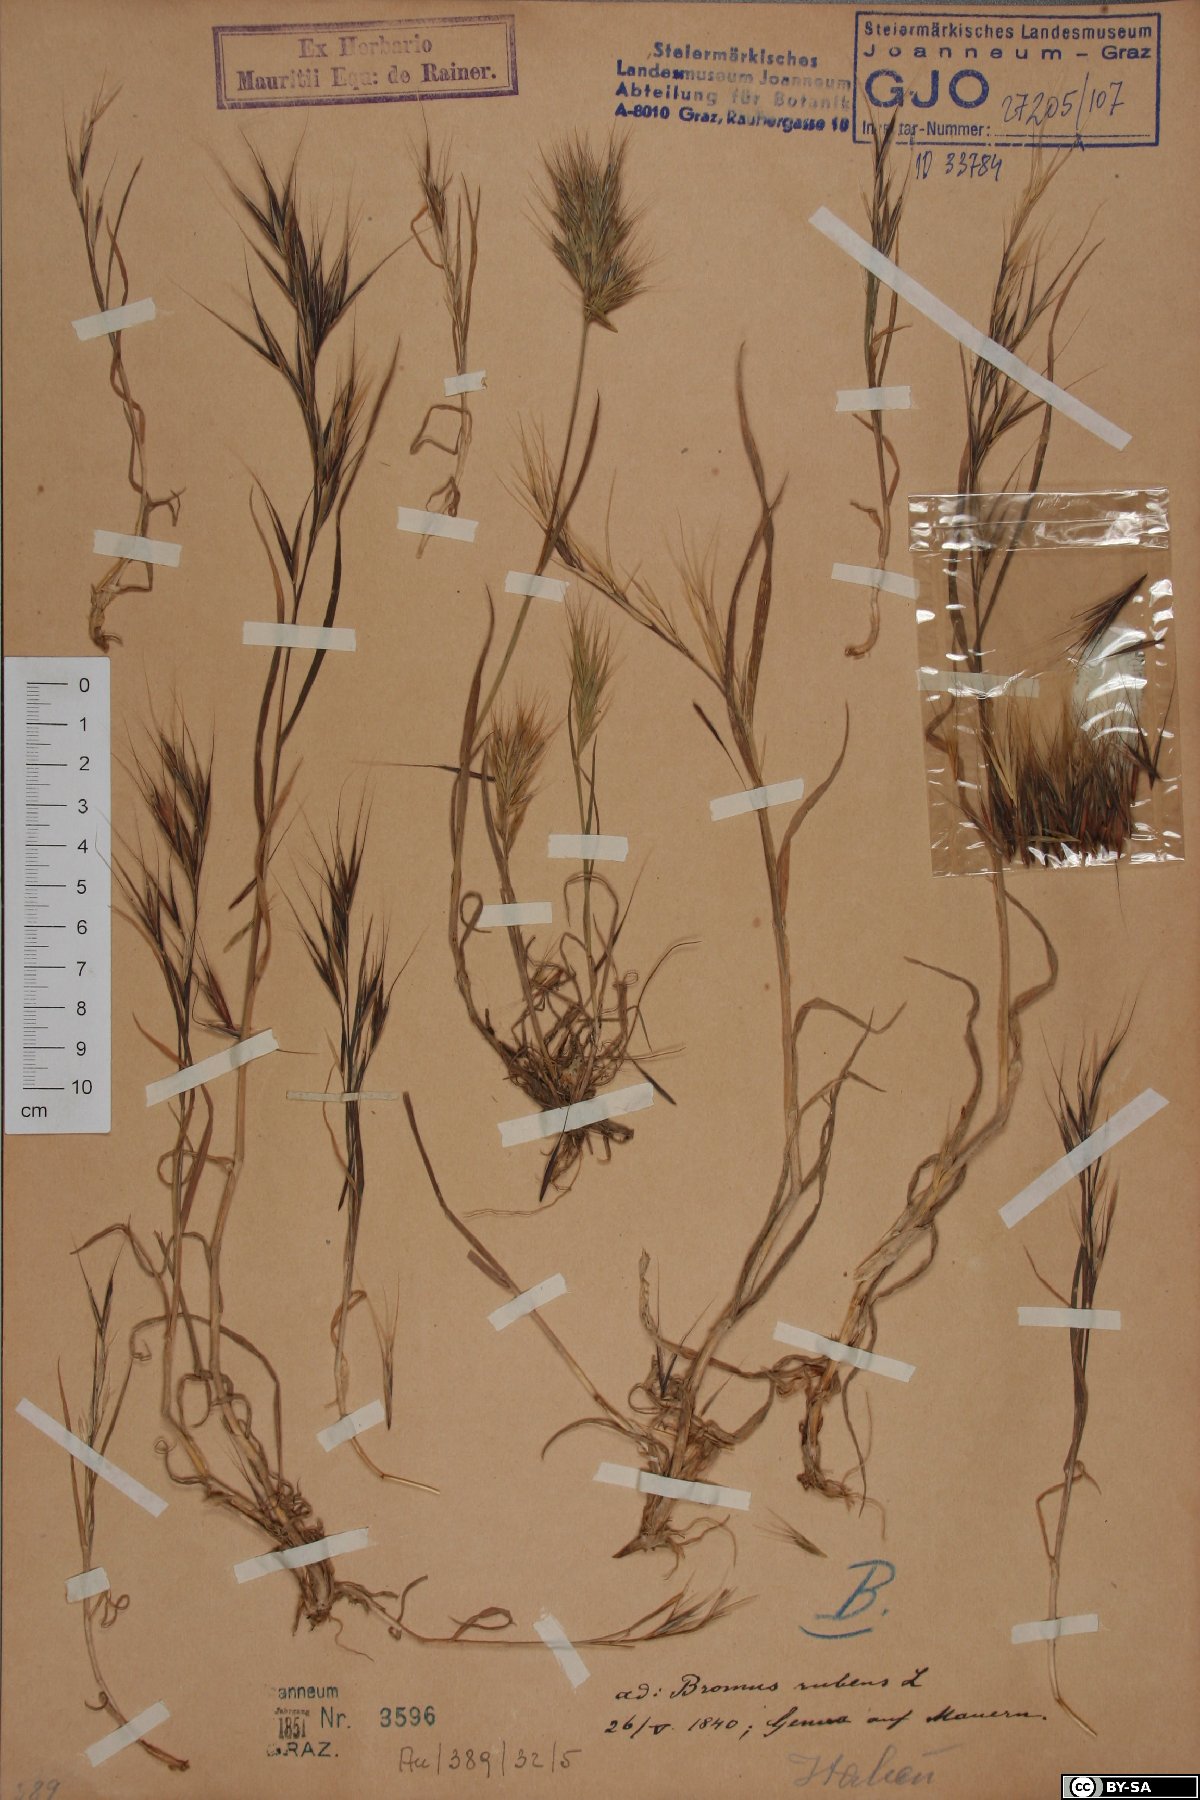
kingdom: Plantae
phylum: Tracheophyta
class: Liliopsida
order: Poales
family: Poaceae
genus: Bromus
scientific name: Bromus rubens
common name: Red brome
